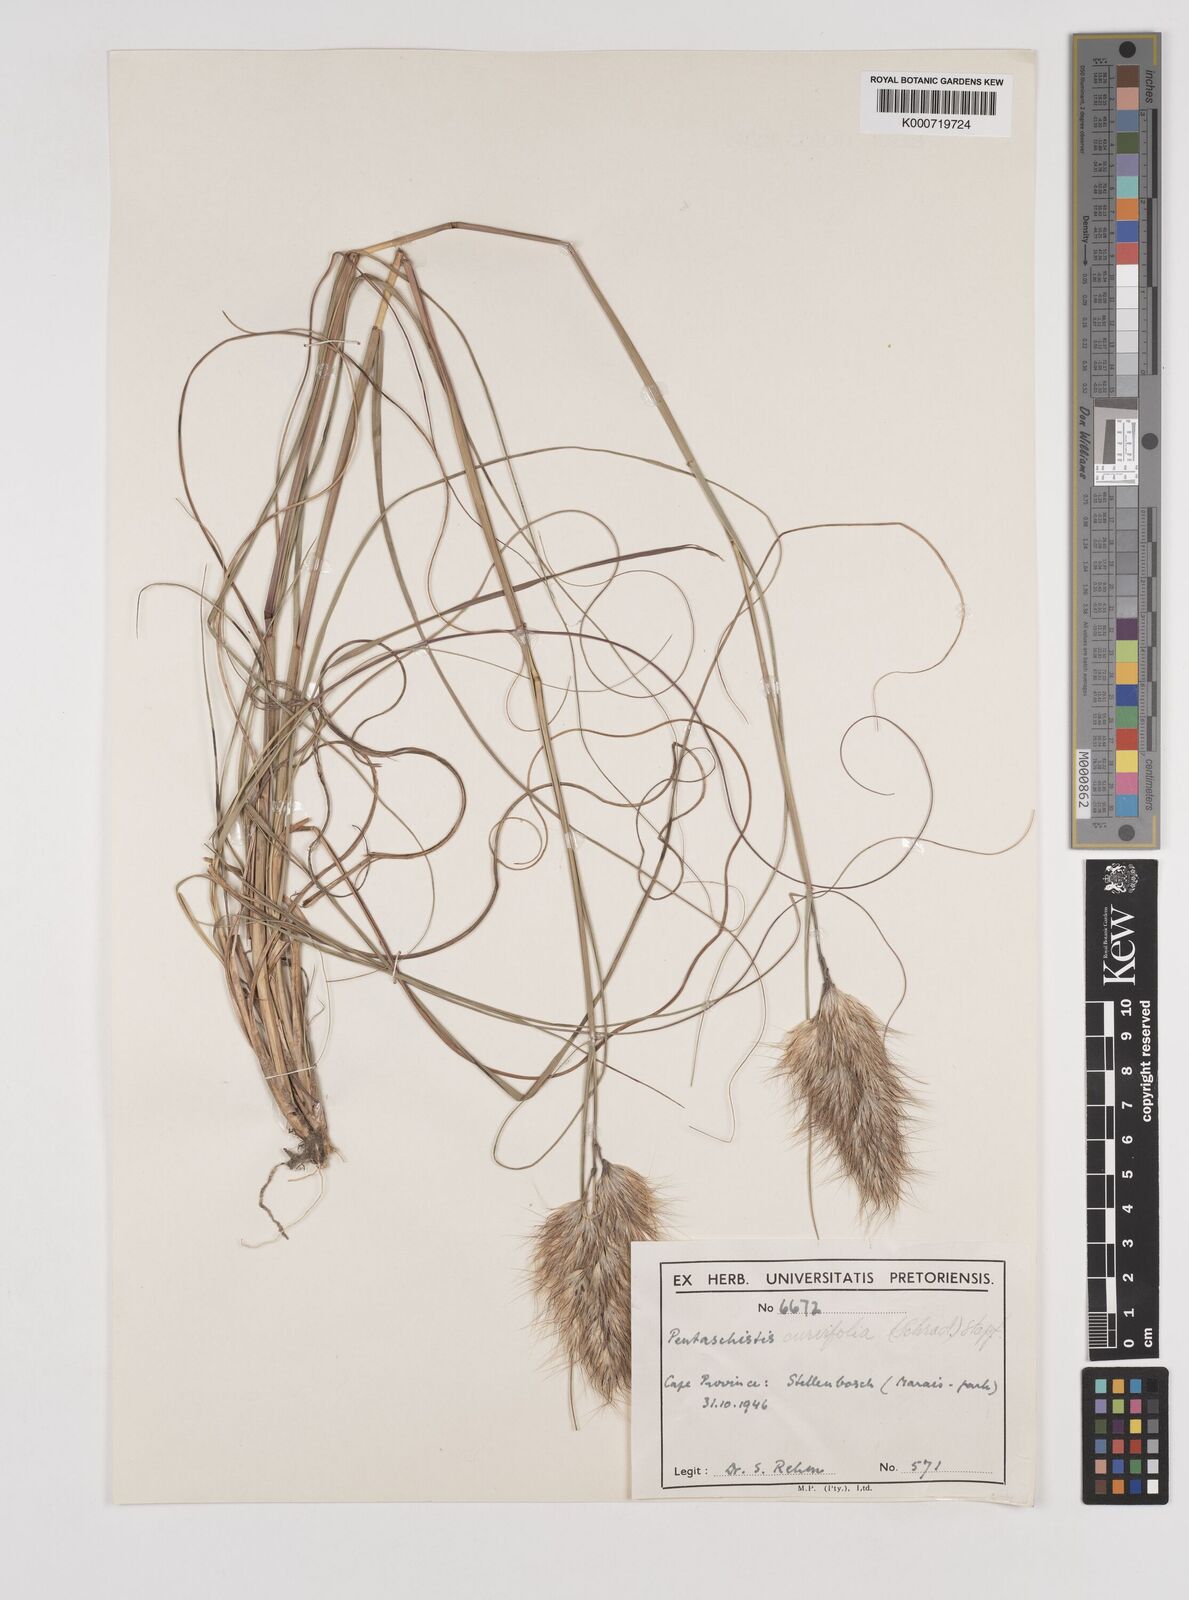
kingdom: Plantae
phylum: Tracheophyta
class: Liliopsida
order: Poales
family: Poaceae
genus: Pentameris
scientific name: Pentameris curvifolia
